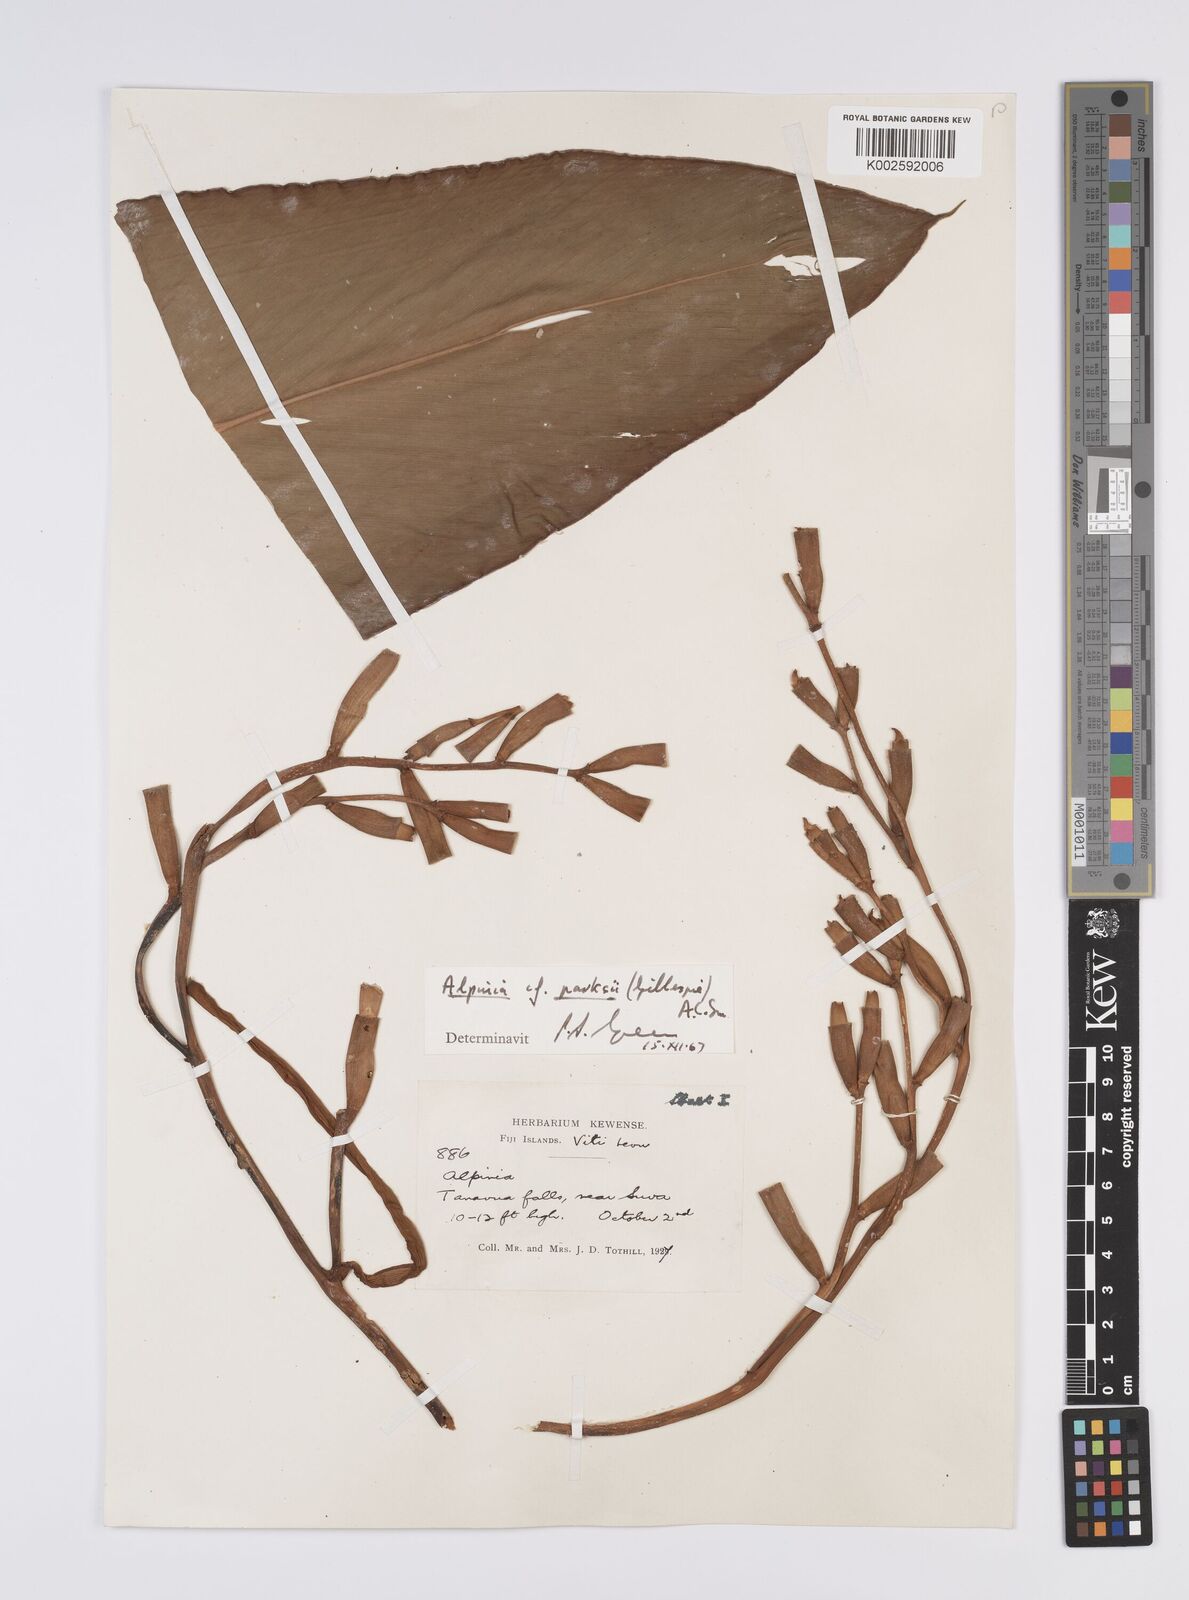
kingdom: Plantae
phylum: Tracheophyta
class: Liliopsida
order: Zingiberales
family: Zingiberaceae
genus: Alpinia
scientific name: Alpinia parksii
